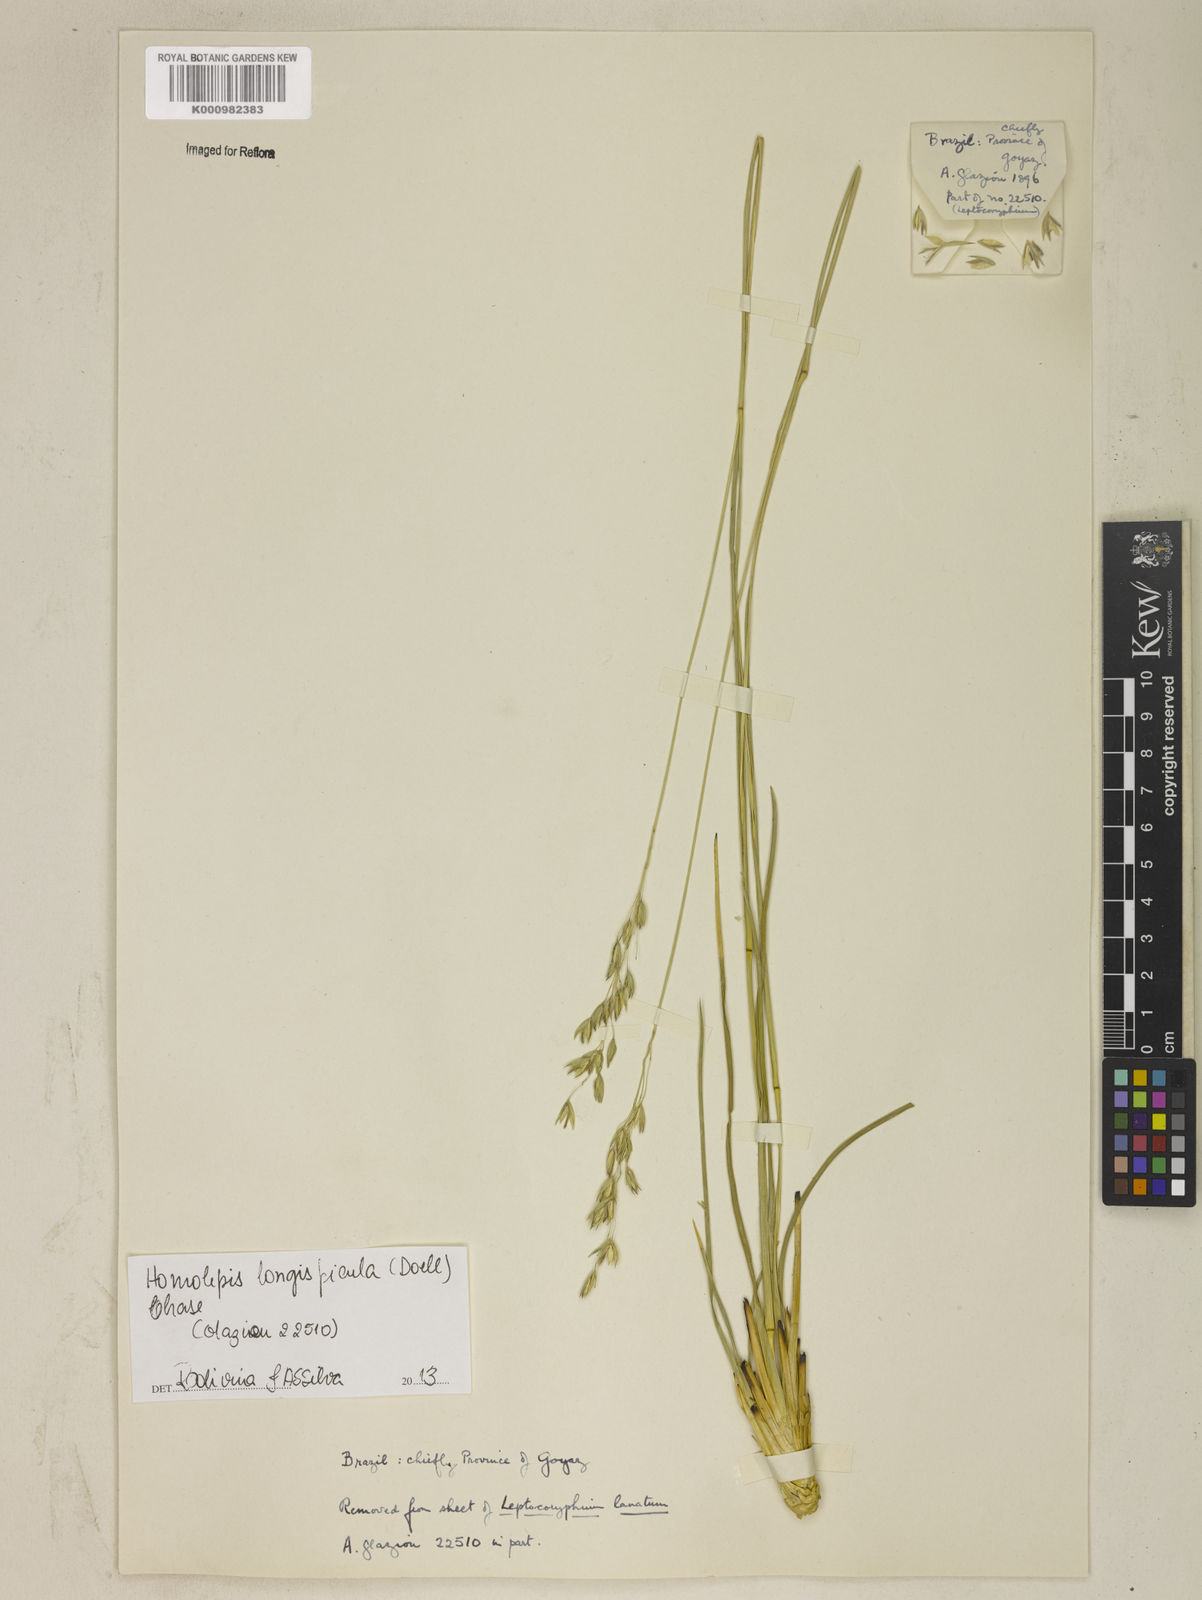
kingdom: Plantae
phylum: Tracheophyta
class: Liliopsida
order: Poales
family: Poaceae
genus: Homolepis
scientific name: Homolepis
